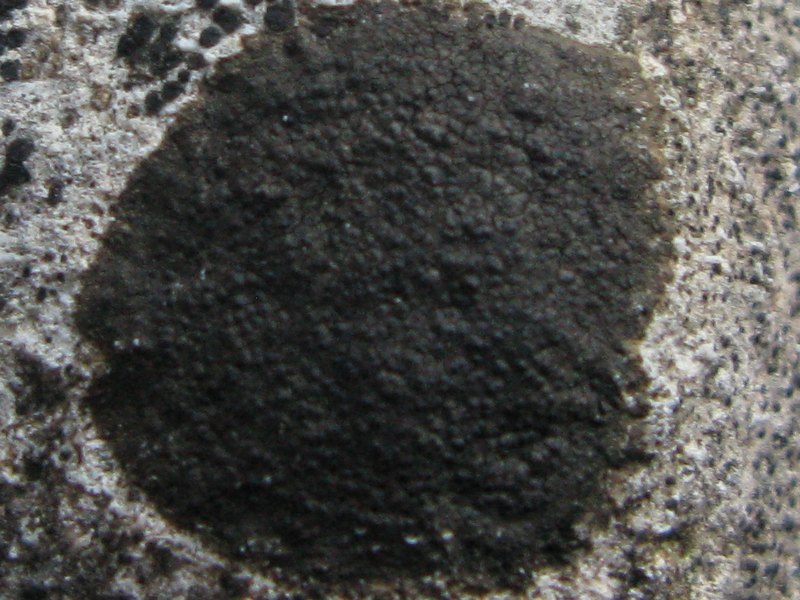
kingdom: Fungi
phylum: Ascomycota
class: Eurotiomycetes
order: Verrucariales
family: Verrucariaceae
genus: Verrucaria
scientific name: Verrucaria nigrescens
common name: sortbrun vortelav
